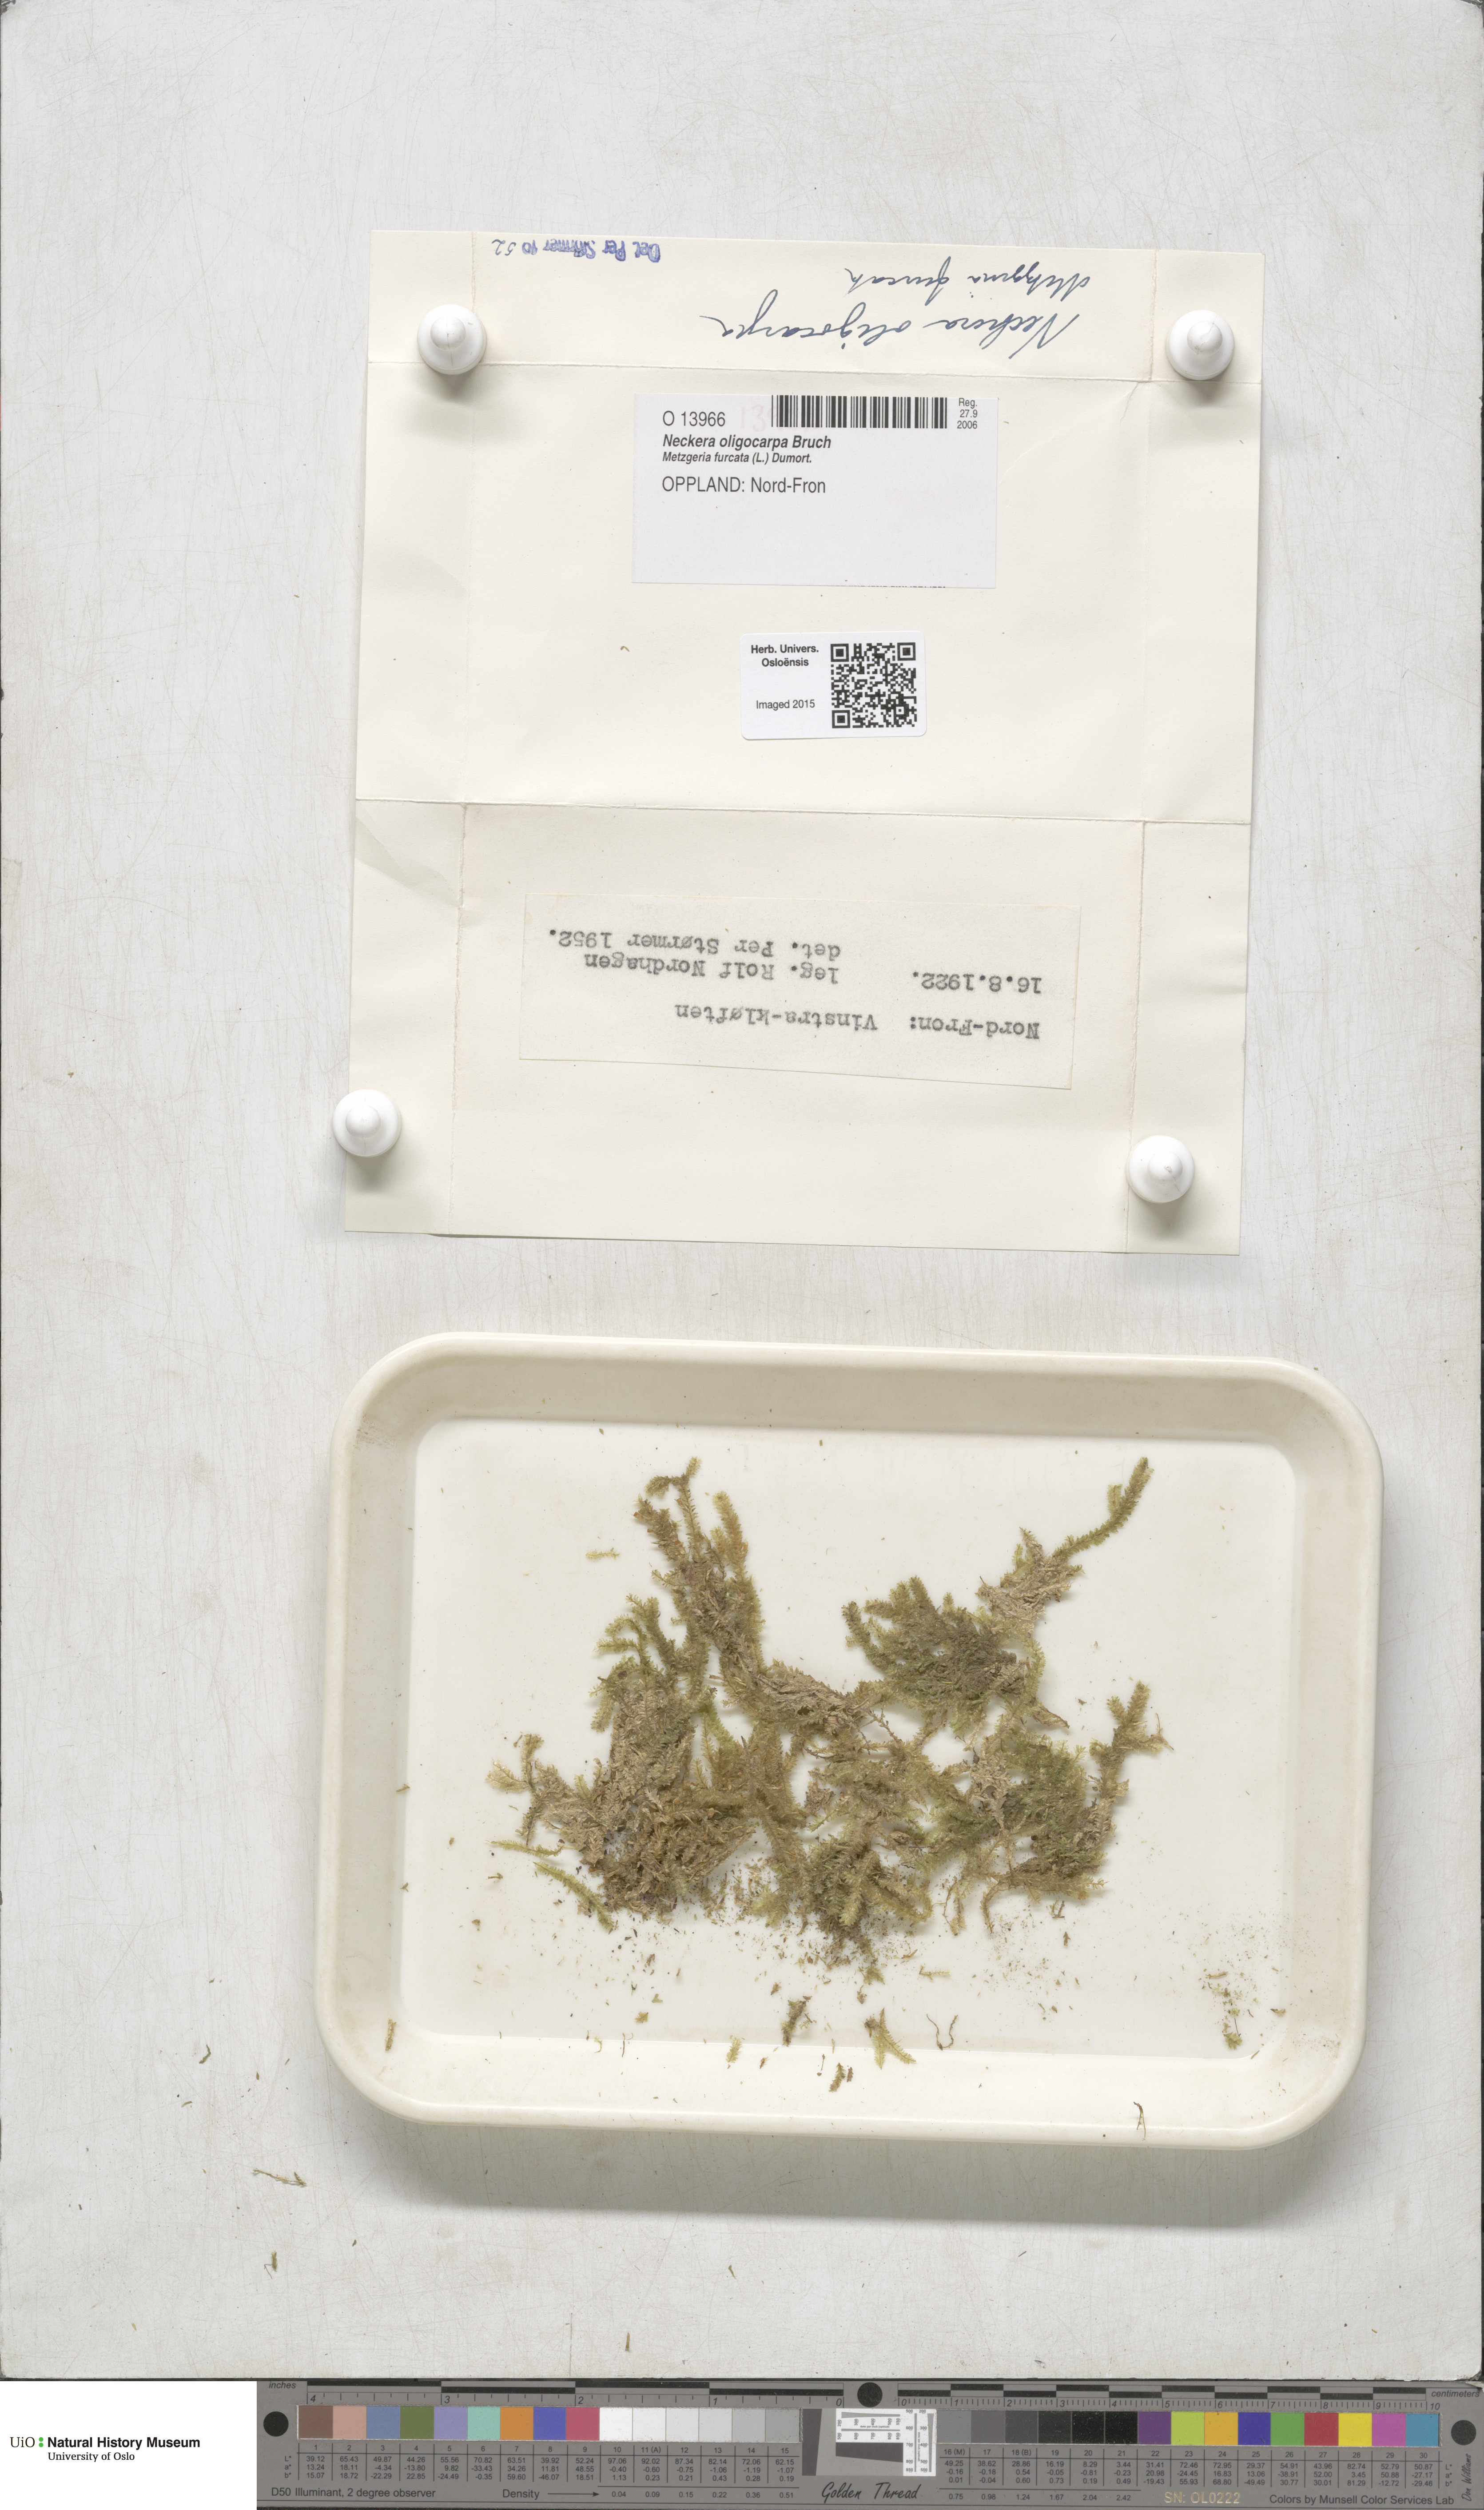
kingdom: Plantae
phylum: Bryophyta
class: Bryopsida
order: Hypnales
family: Neckeraceae
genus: Neckera
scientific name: Neckera oligocarpa
